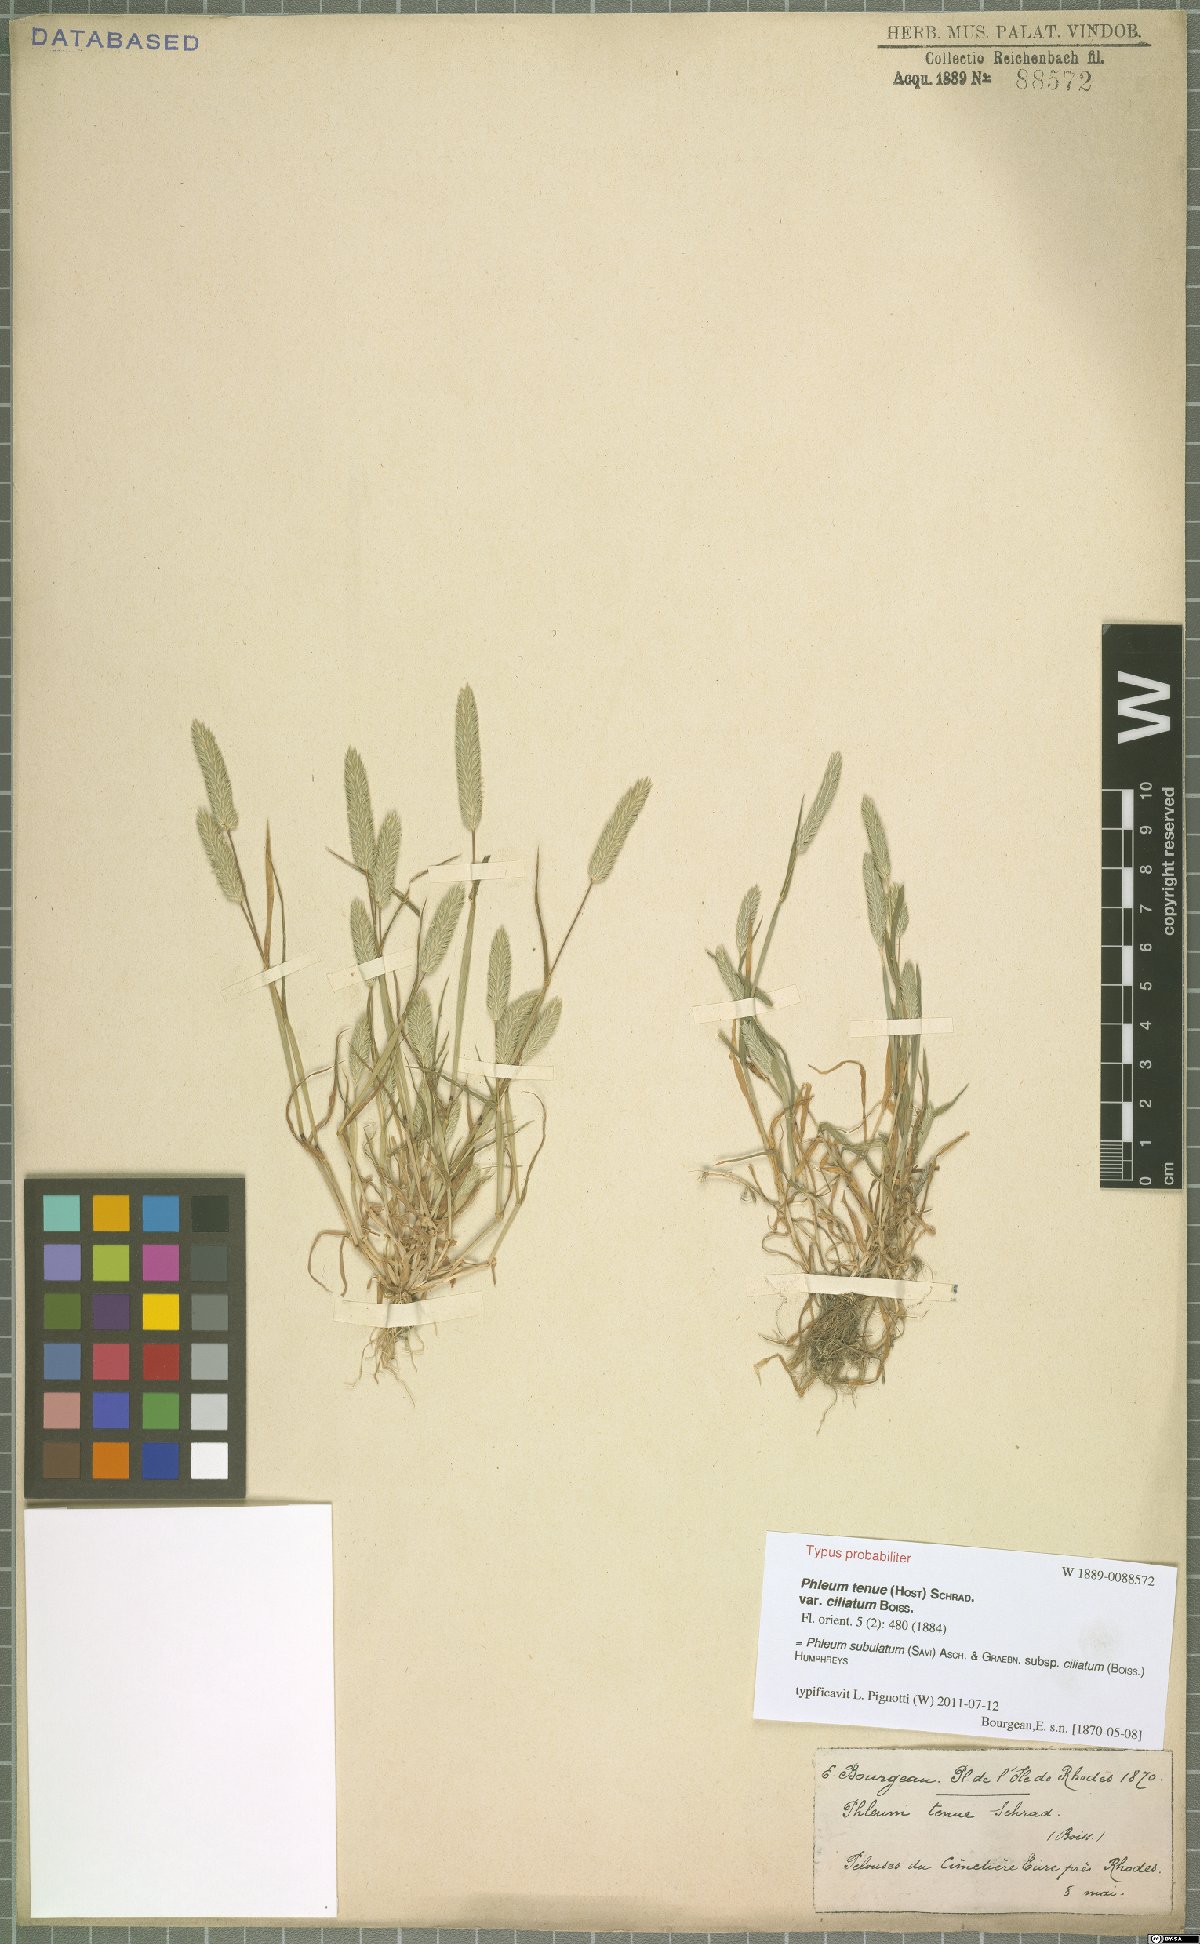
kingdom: Plantae
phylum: Tracheophyta
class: Liliopsida
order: Poales
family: Poaceae
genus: Phleum
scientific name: Phleum subulatum
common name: Italian timothy
